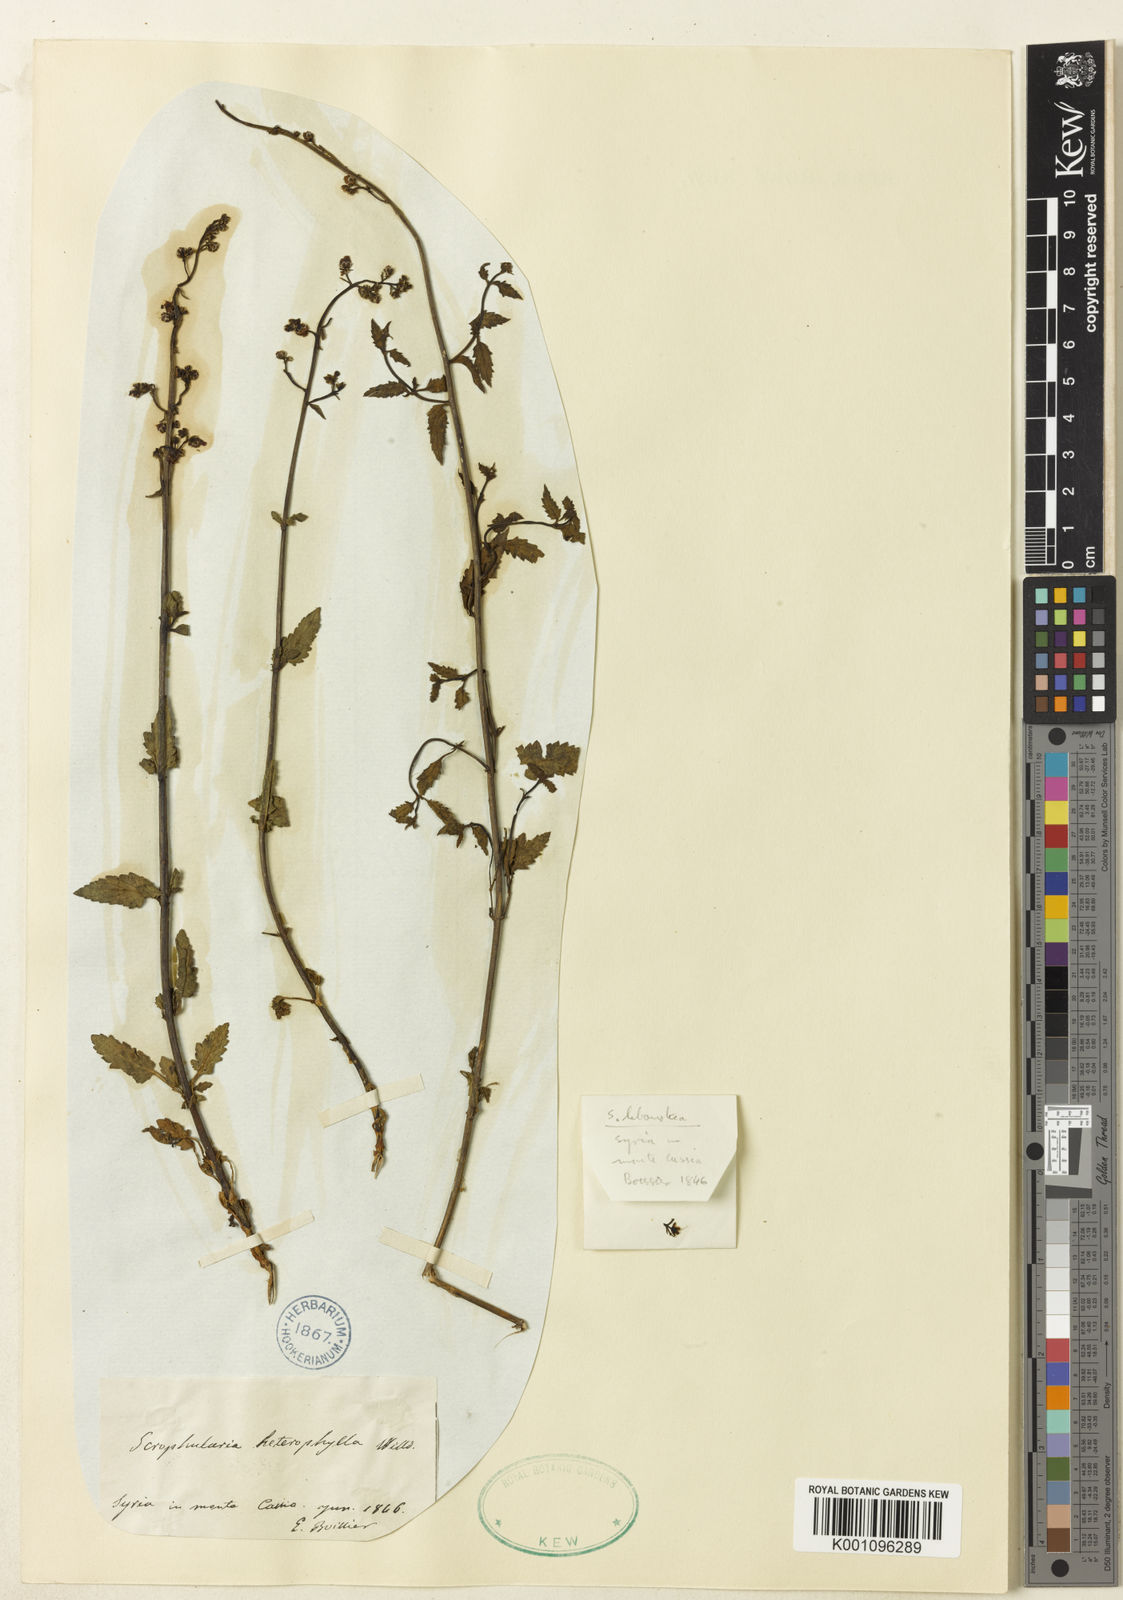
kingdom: Plantae
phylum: Tracheophyta
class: Magnoliopsida
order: Lamiales
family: Scrophulariaceae
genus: Scrophularia
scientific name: Scrophularia heterophylla
